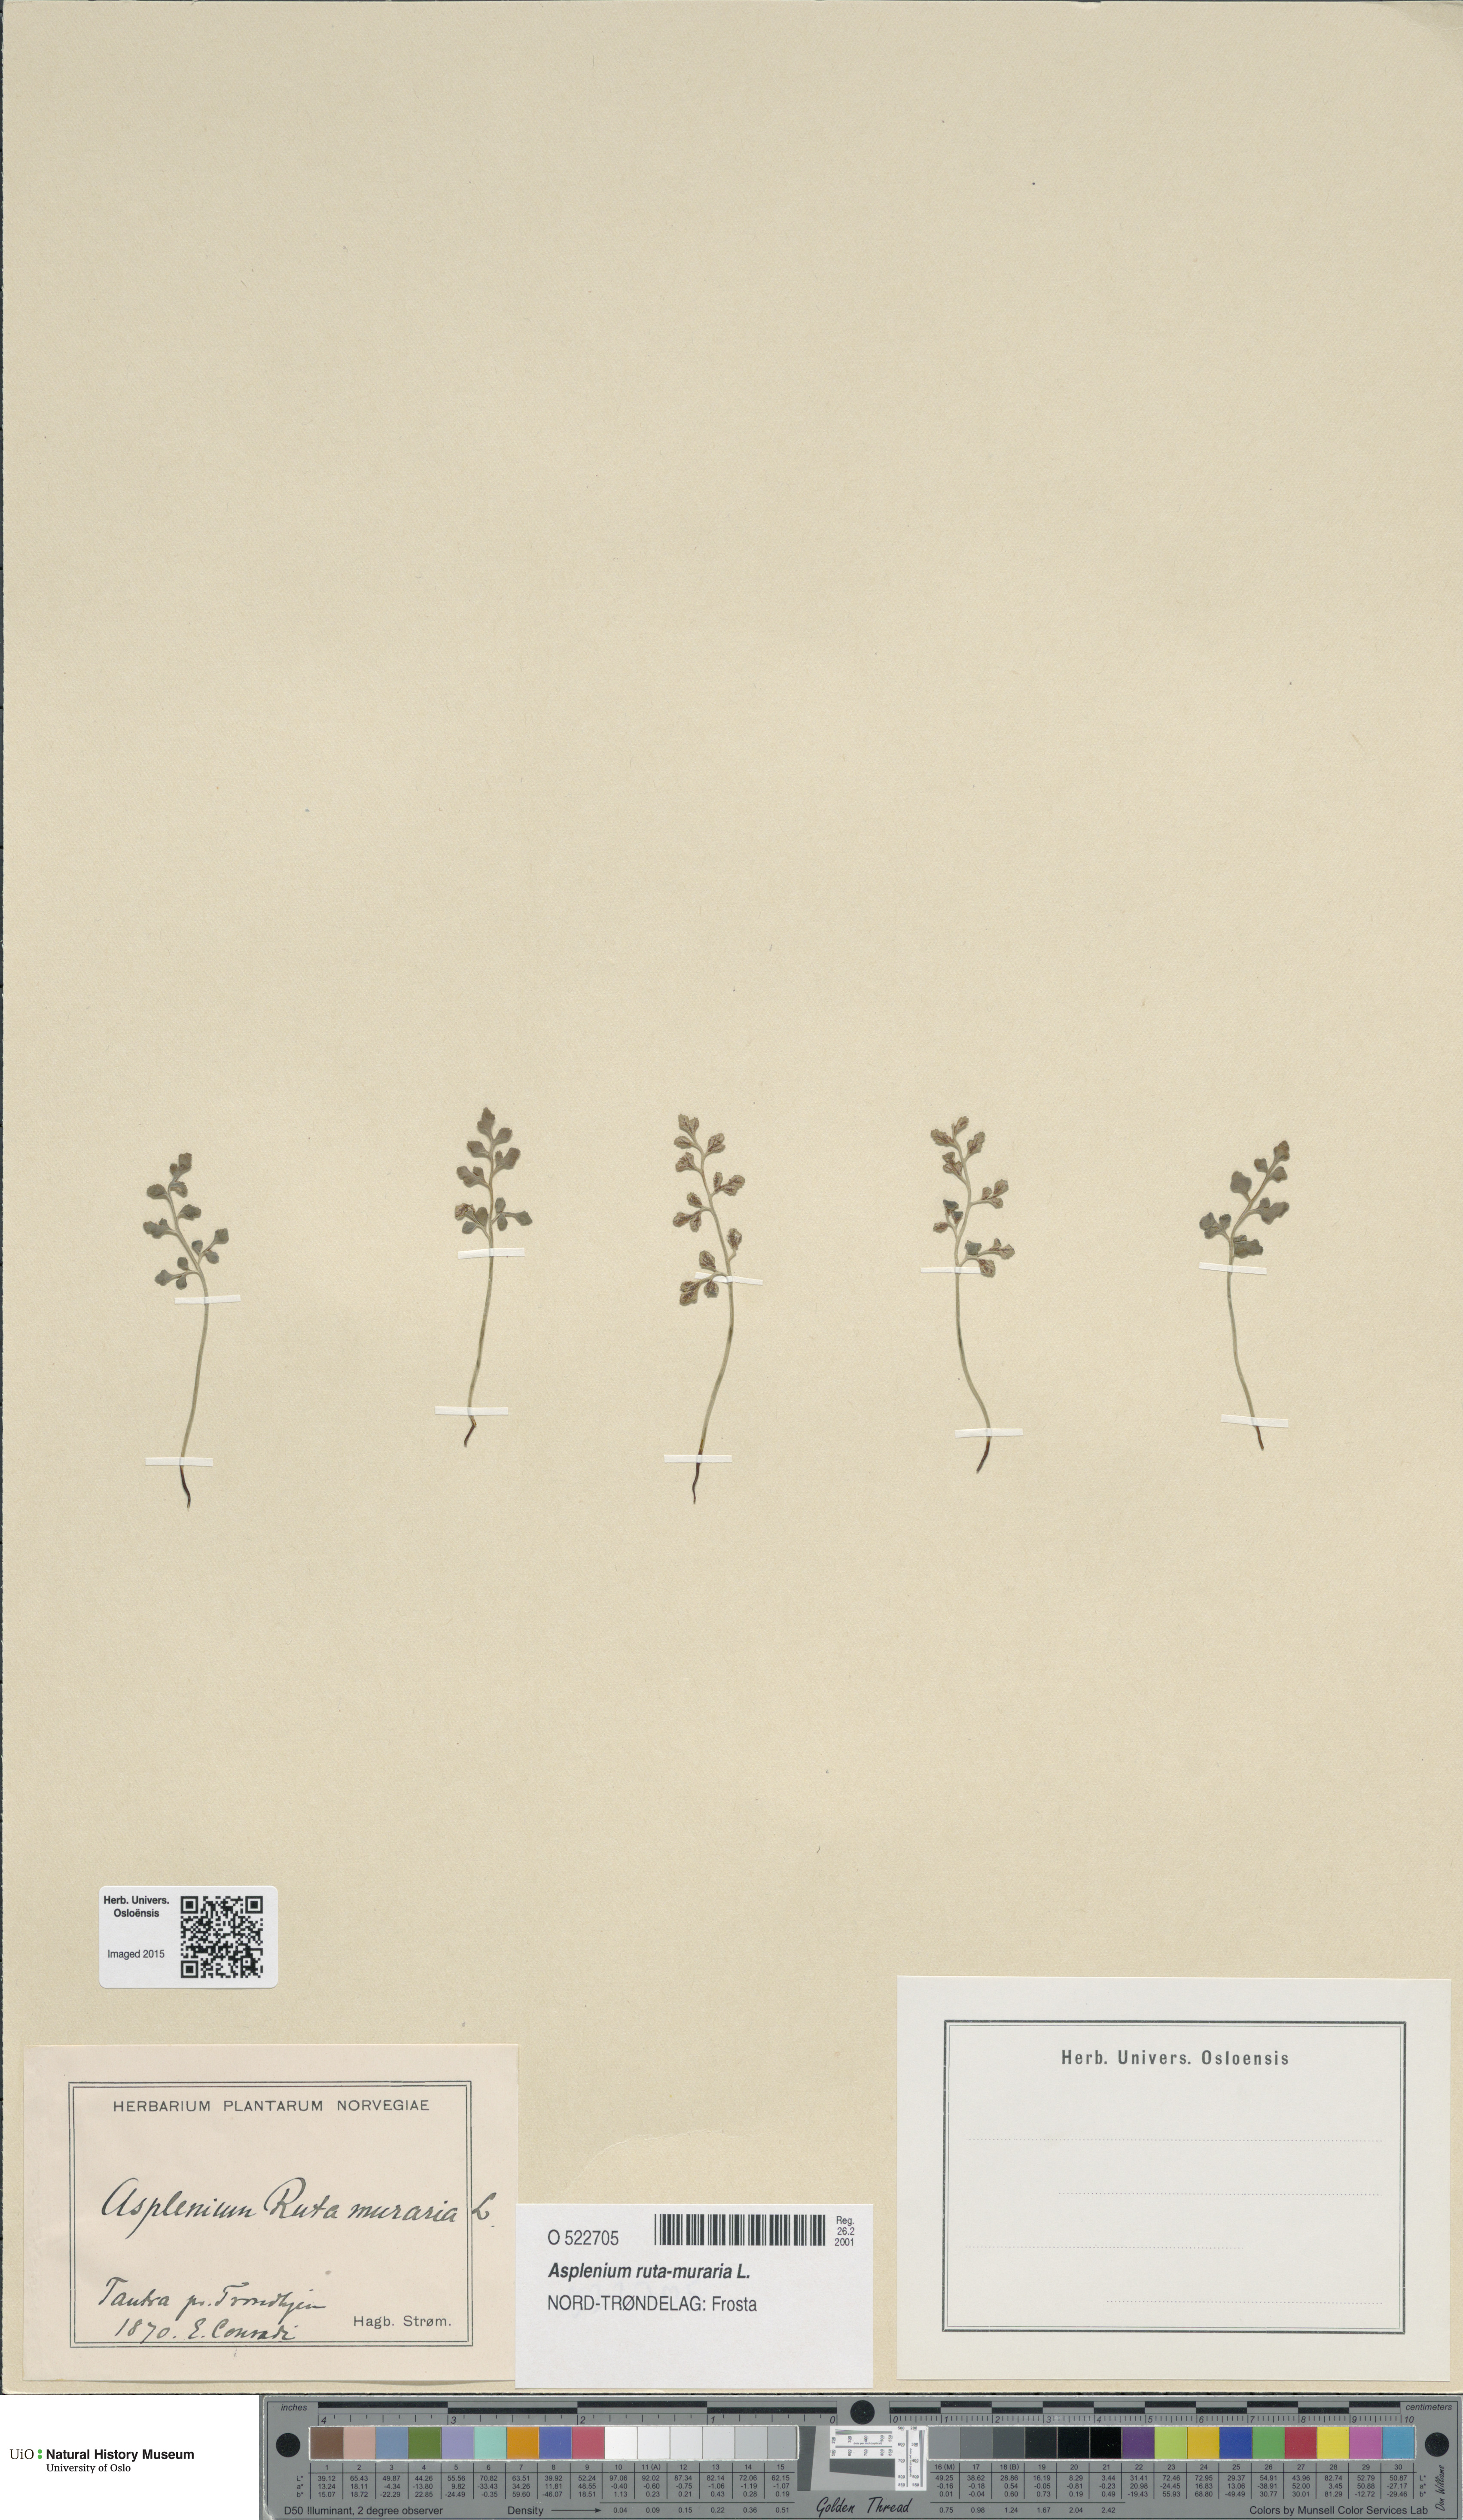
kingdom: Plantae
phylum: Tracheophyta
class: Polypodiopsida
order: Polypodiales
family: Aspleniaceae
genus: Asplenium
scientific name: Asplenium ruta-muraria
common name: Wall-rue
